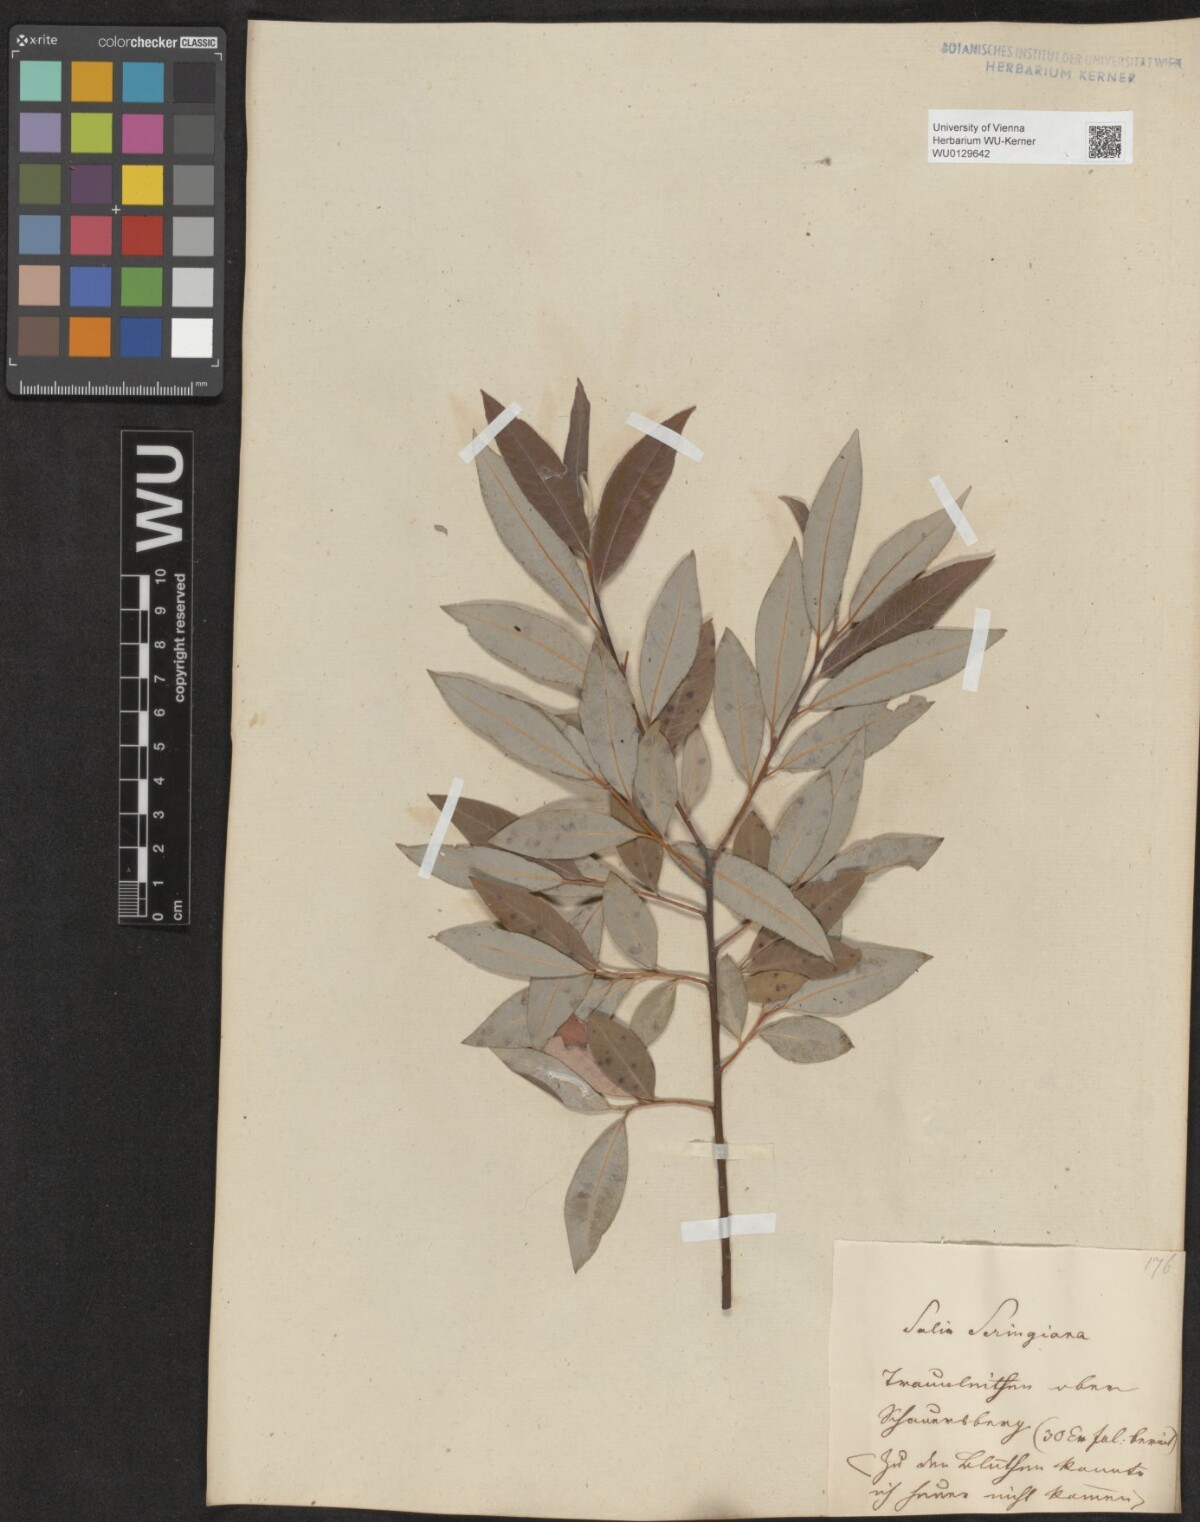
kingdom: Plantae
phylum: Tracheophyta
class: Magnoliopsida
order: Malpighiales
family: Salicaceae
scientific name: Salicaceae
